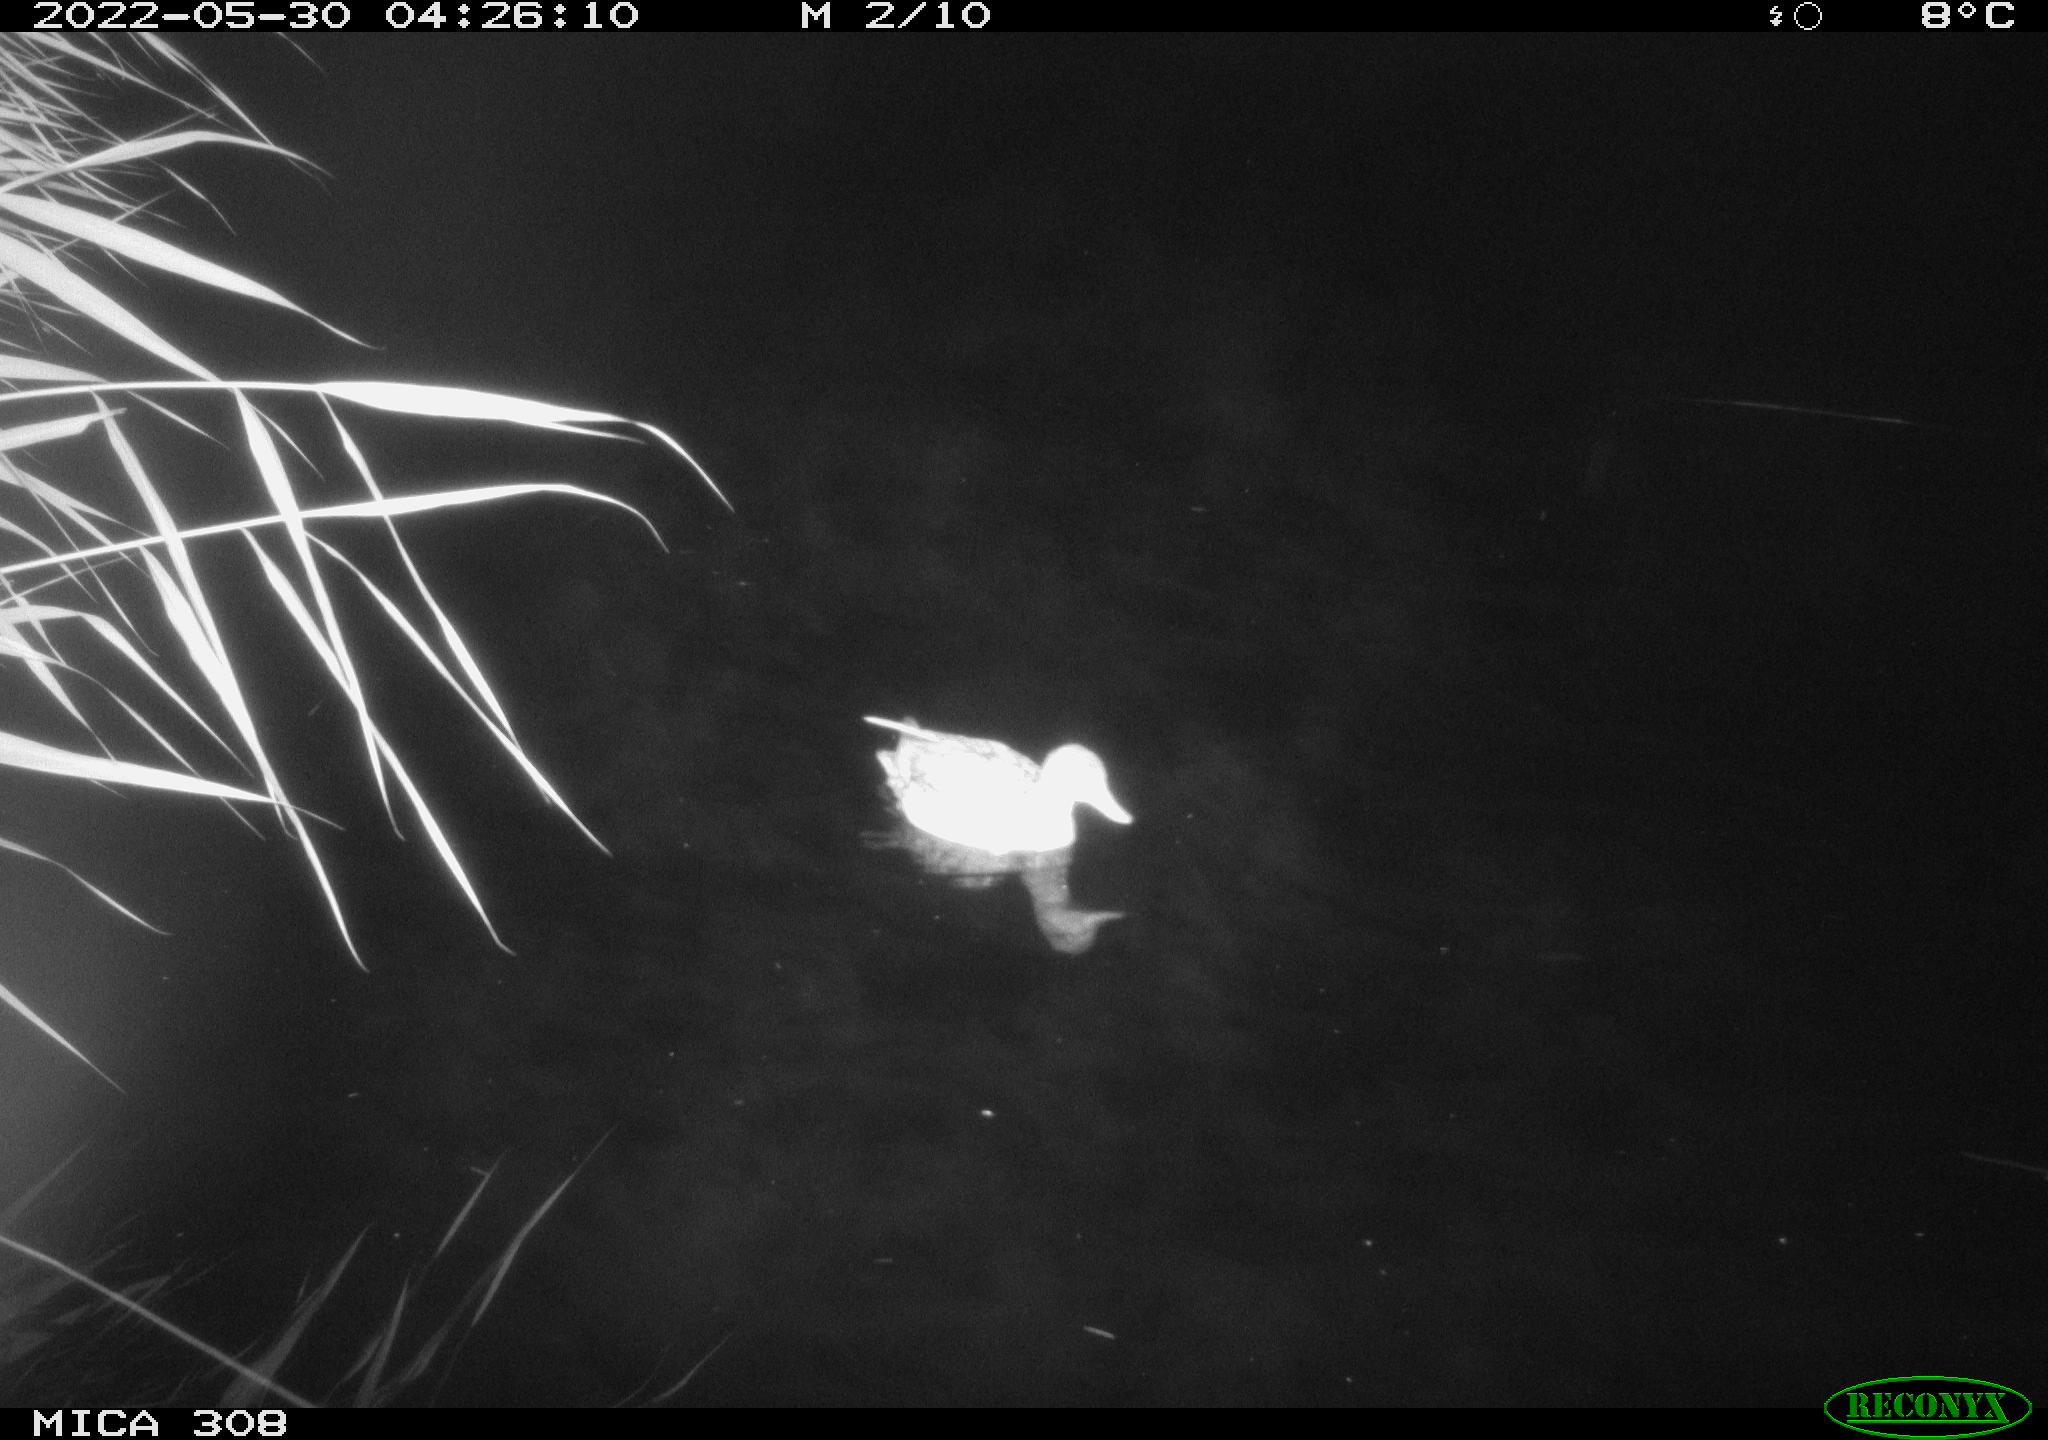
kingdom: Animalia
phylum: Chordata
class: Aves
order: Gruiformes
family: Rallidae
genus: Gallinula
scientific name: Gallinula chloropus
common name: Common moorhen
